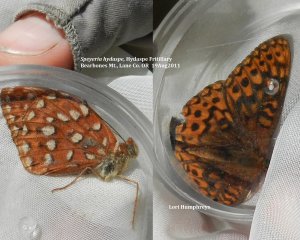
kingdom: Animalia
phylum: Arthropoda
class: Insecta
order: Lepidoptera
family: Nymphalidae
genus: Speyeria
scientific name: Speyeria hydaspe
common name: Hydaspe Fritillary
